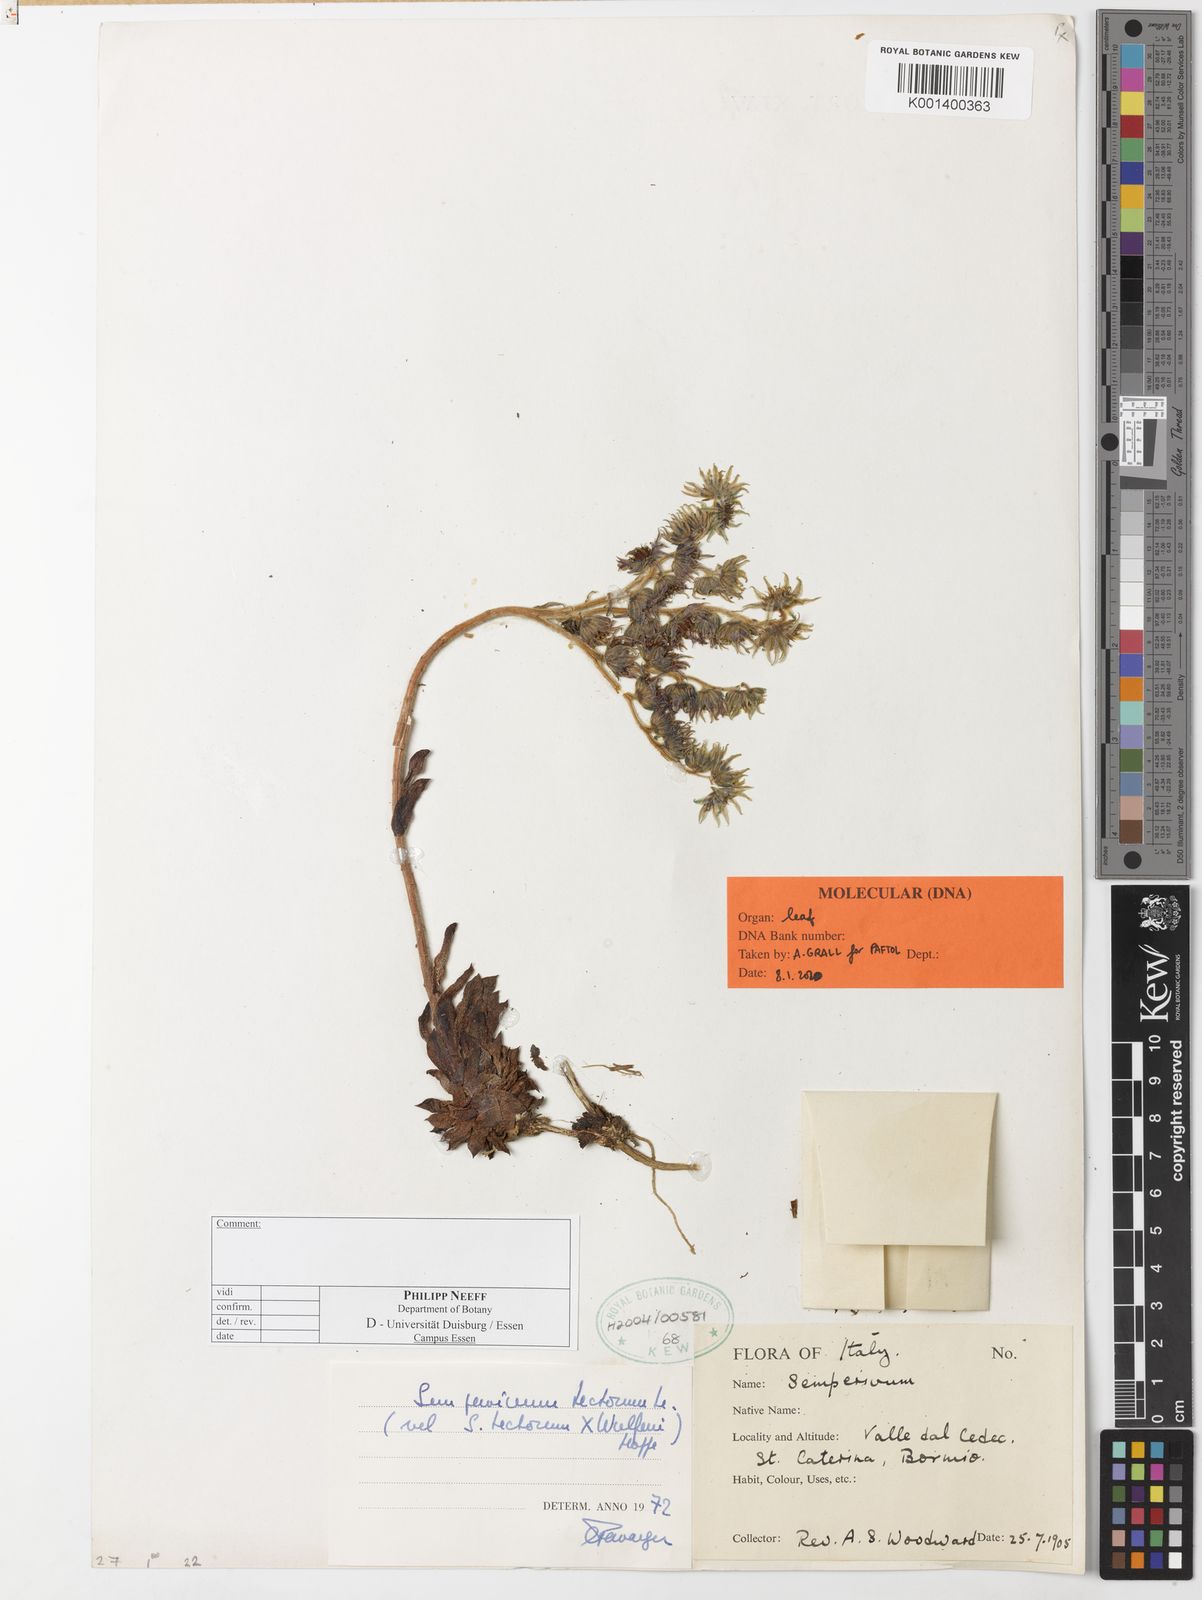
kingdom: Plantae
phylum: Tracheophyta
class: Magnoliopsida
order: Saxifragales
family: Crassulaceae
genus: Sempervivum
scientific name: Sempervivum tectorum
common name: House-leek
